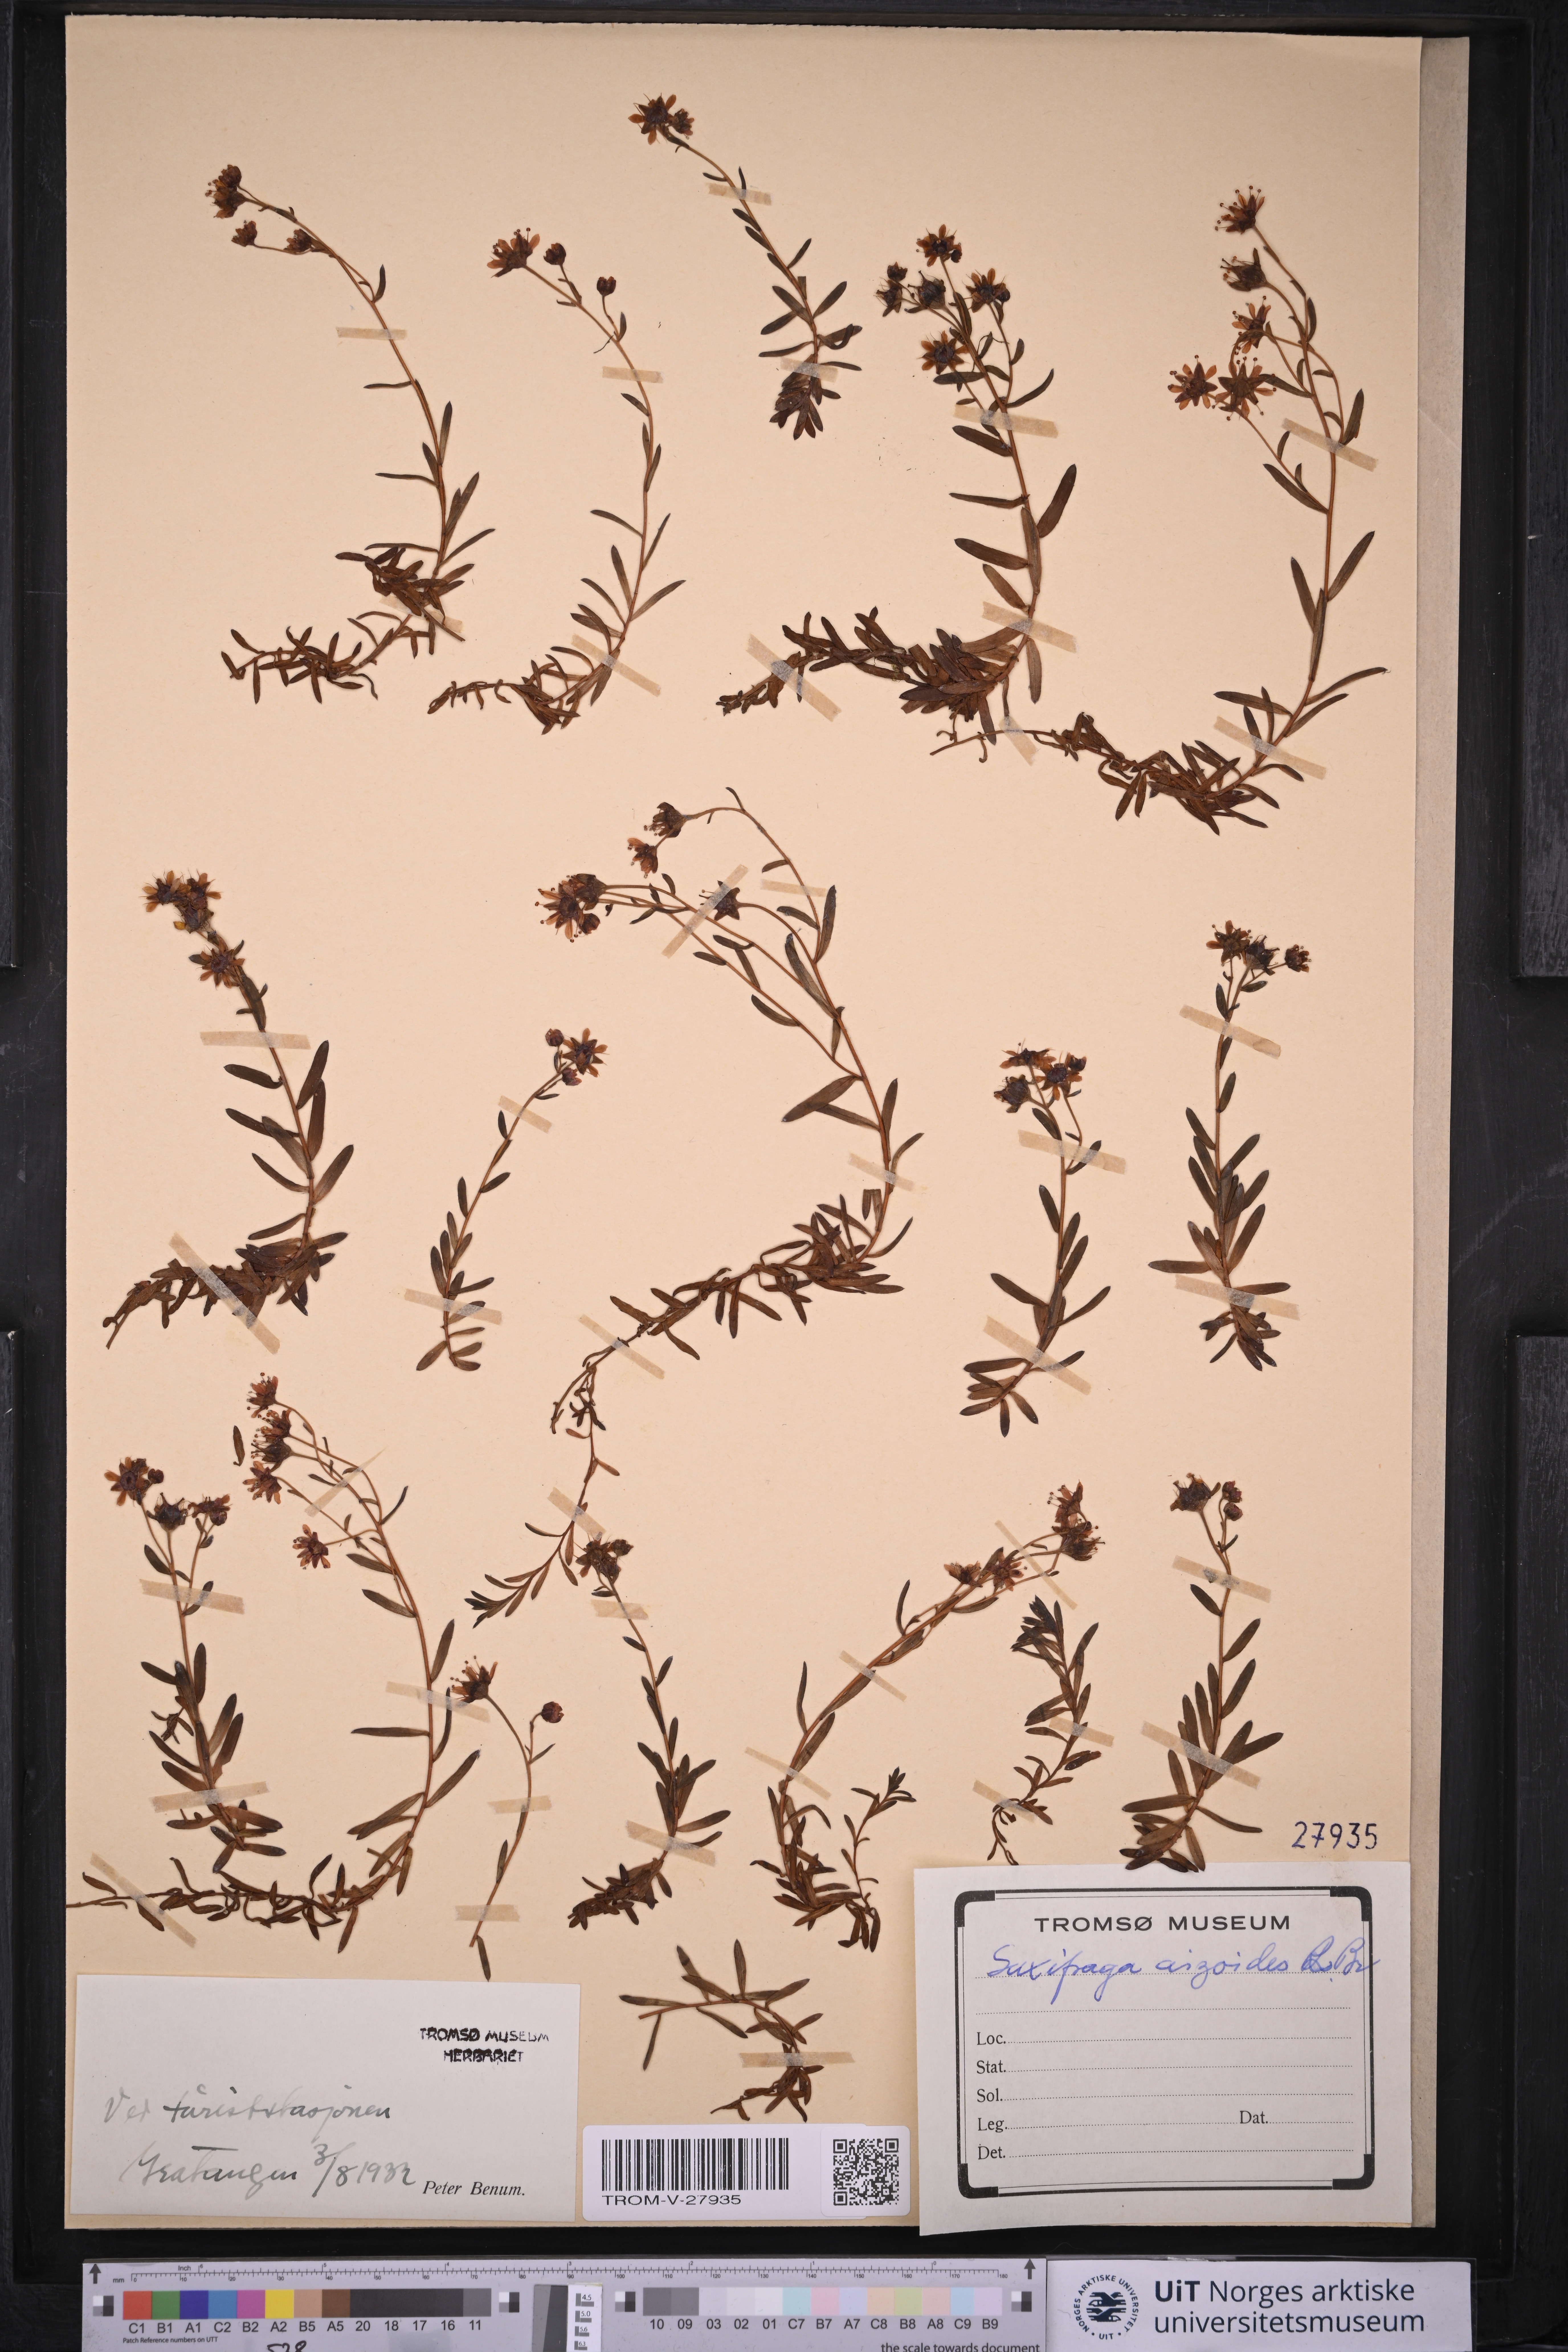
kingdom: Plantae
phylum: Tracheophyta
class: Magnoliopsida
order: Saxifragales
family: Saxifragaceae
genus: Saxifraga
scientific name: Saxifraga aizoides
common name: Yellow mountain saxifrage
